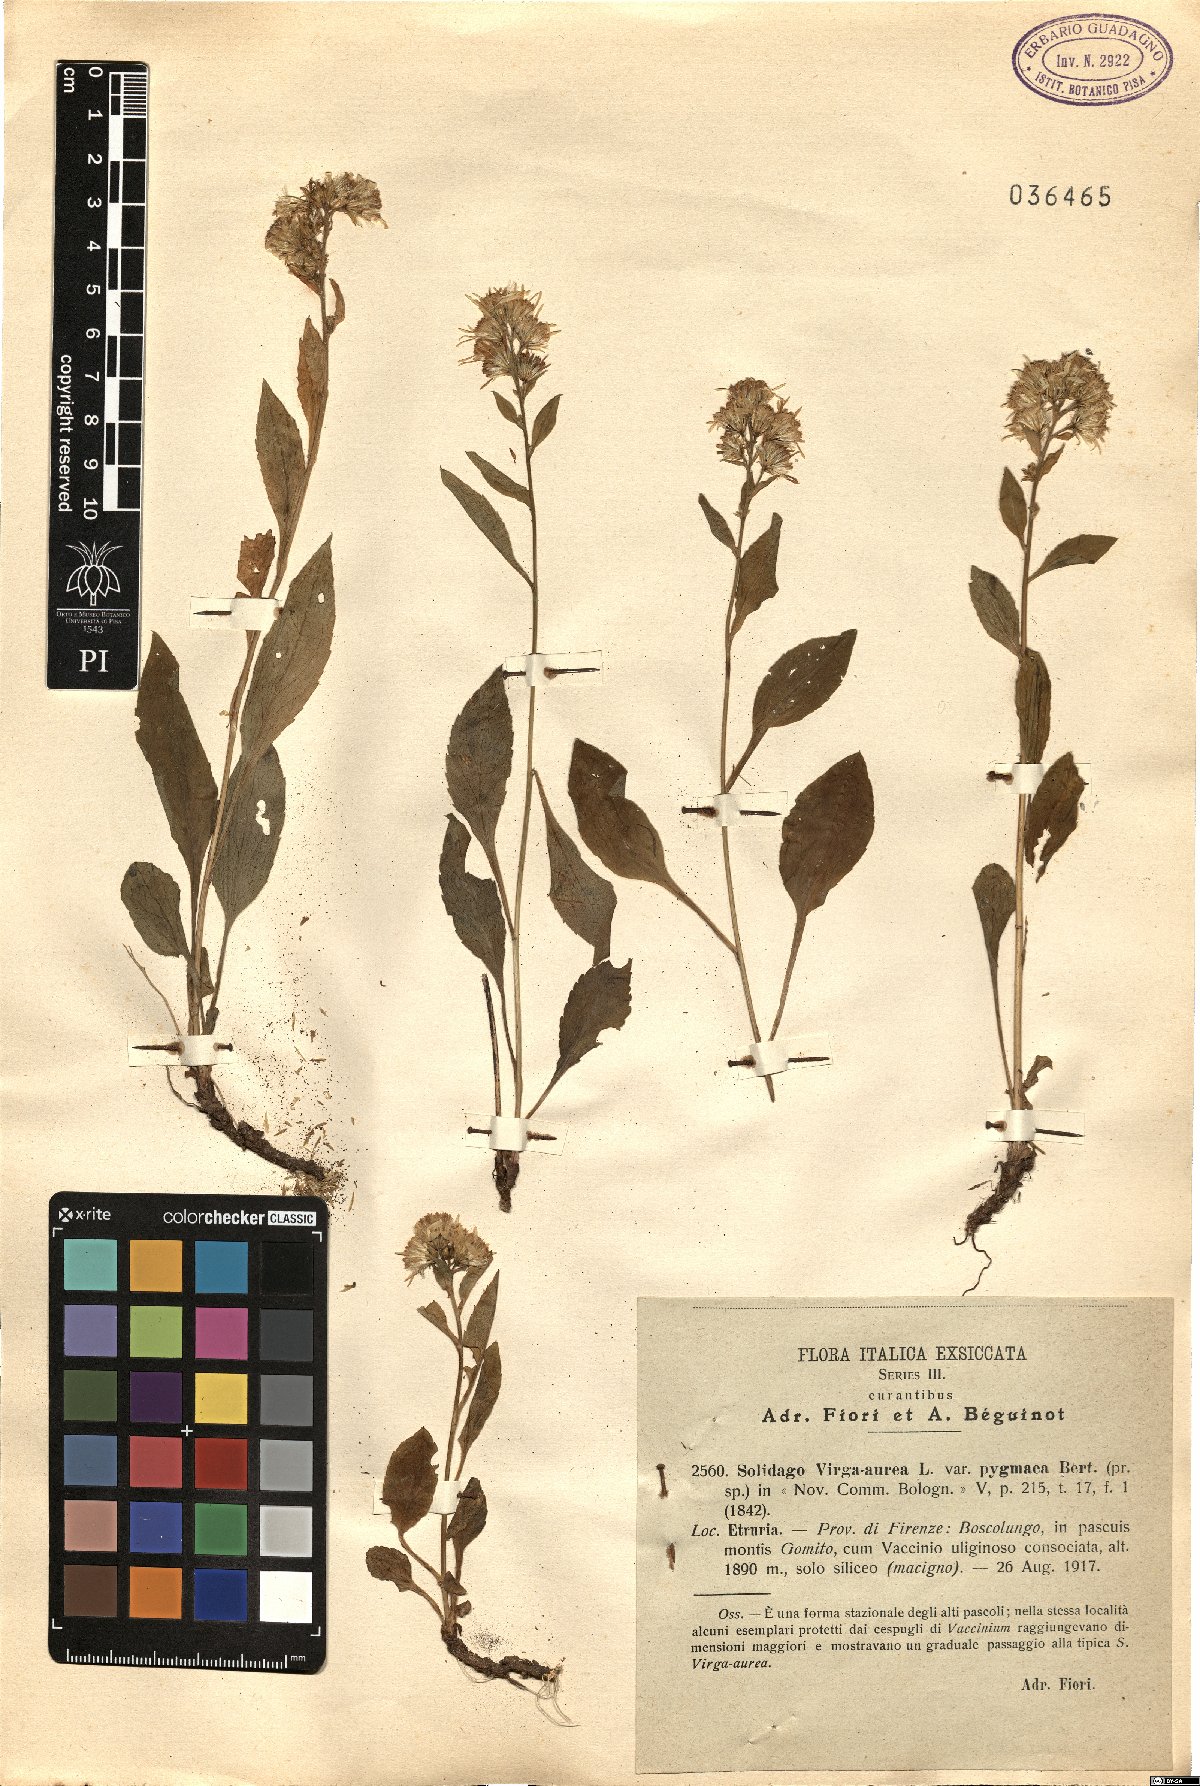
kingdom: Plantae
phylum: Tracheophyta
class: Magnoliopsida
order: Asterales
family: Asteraceae
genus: Solidago
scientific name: Solidago virgaurea
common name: Goldenrod
